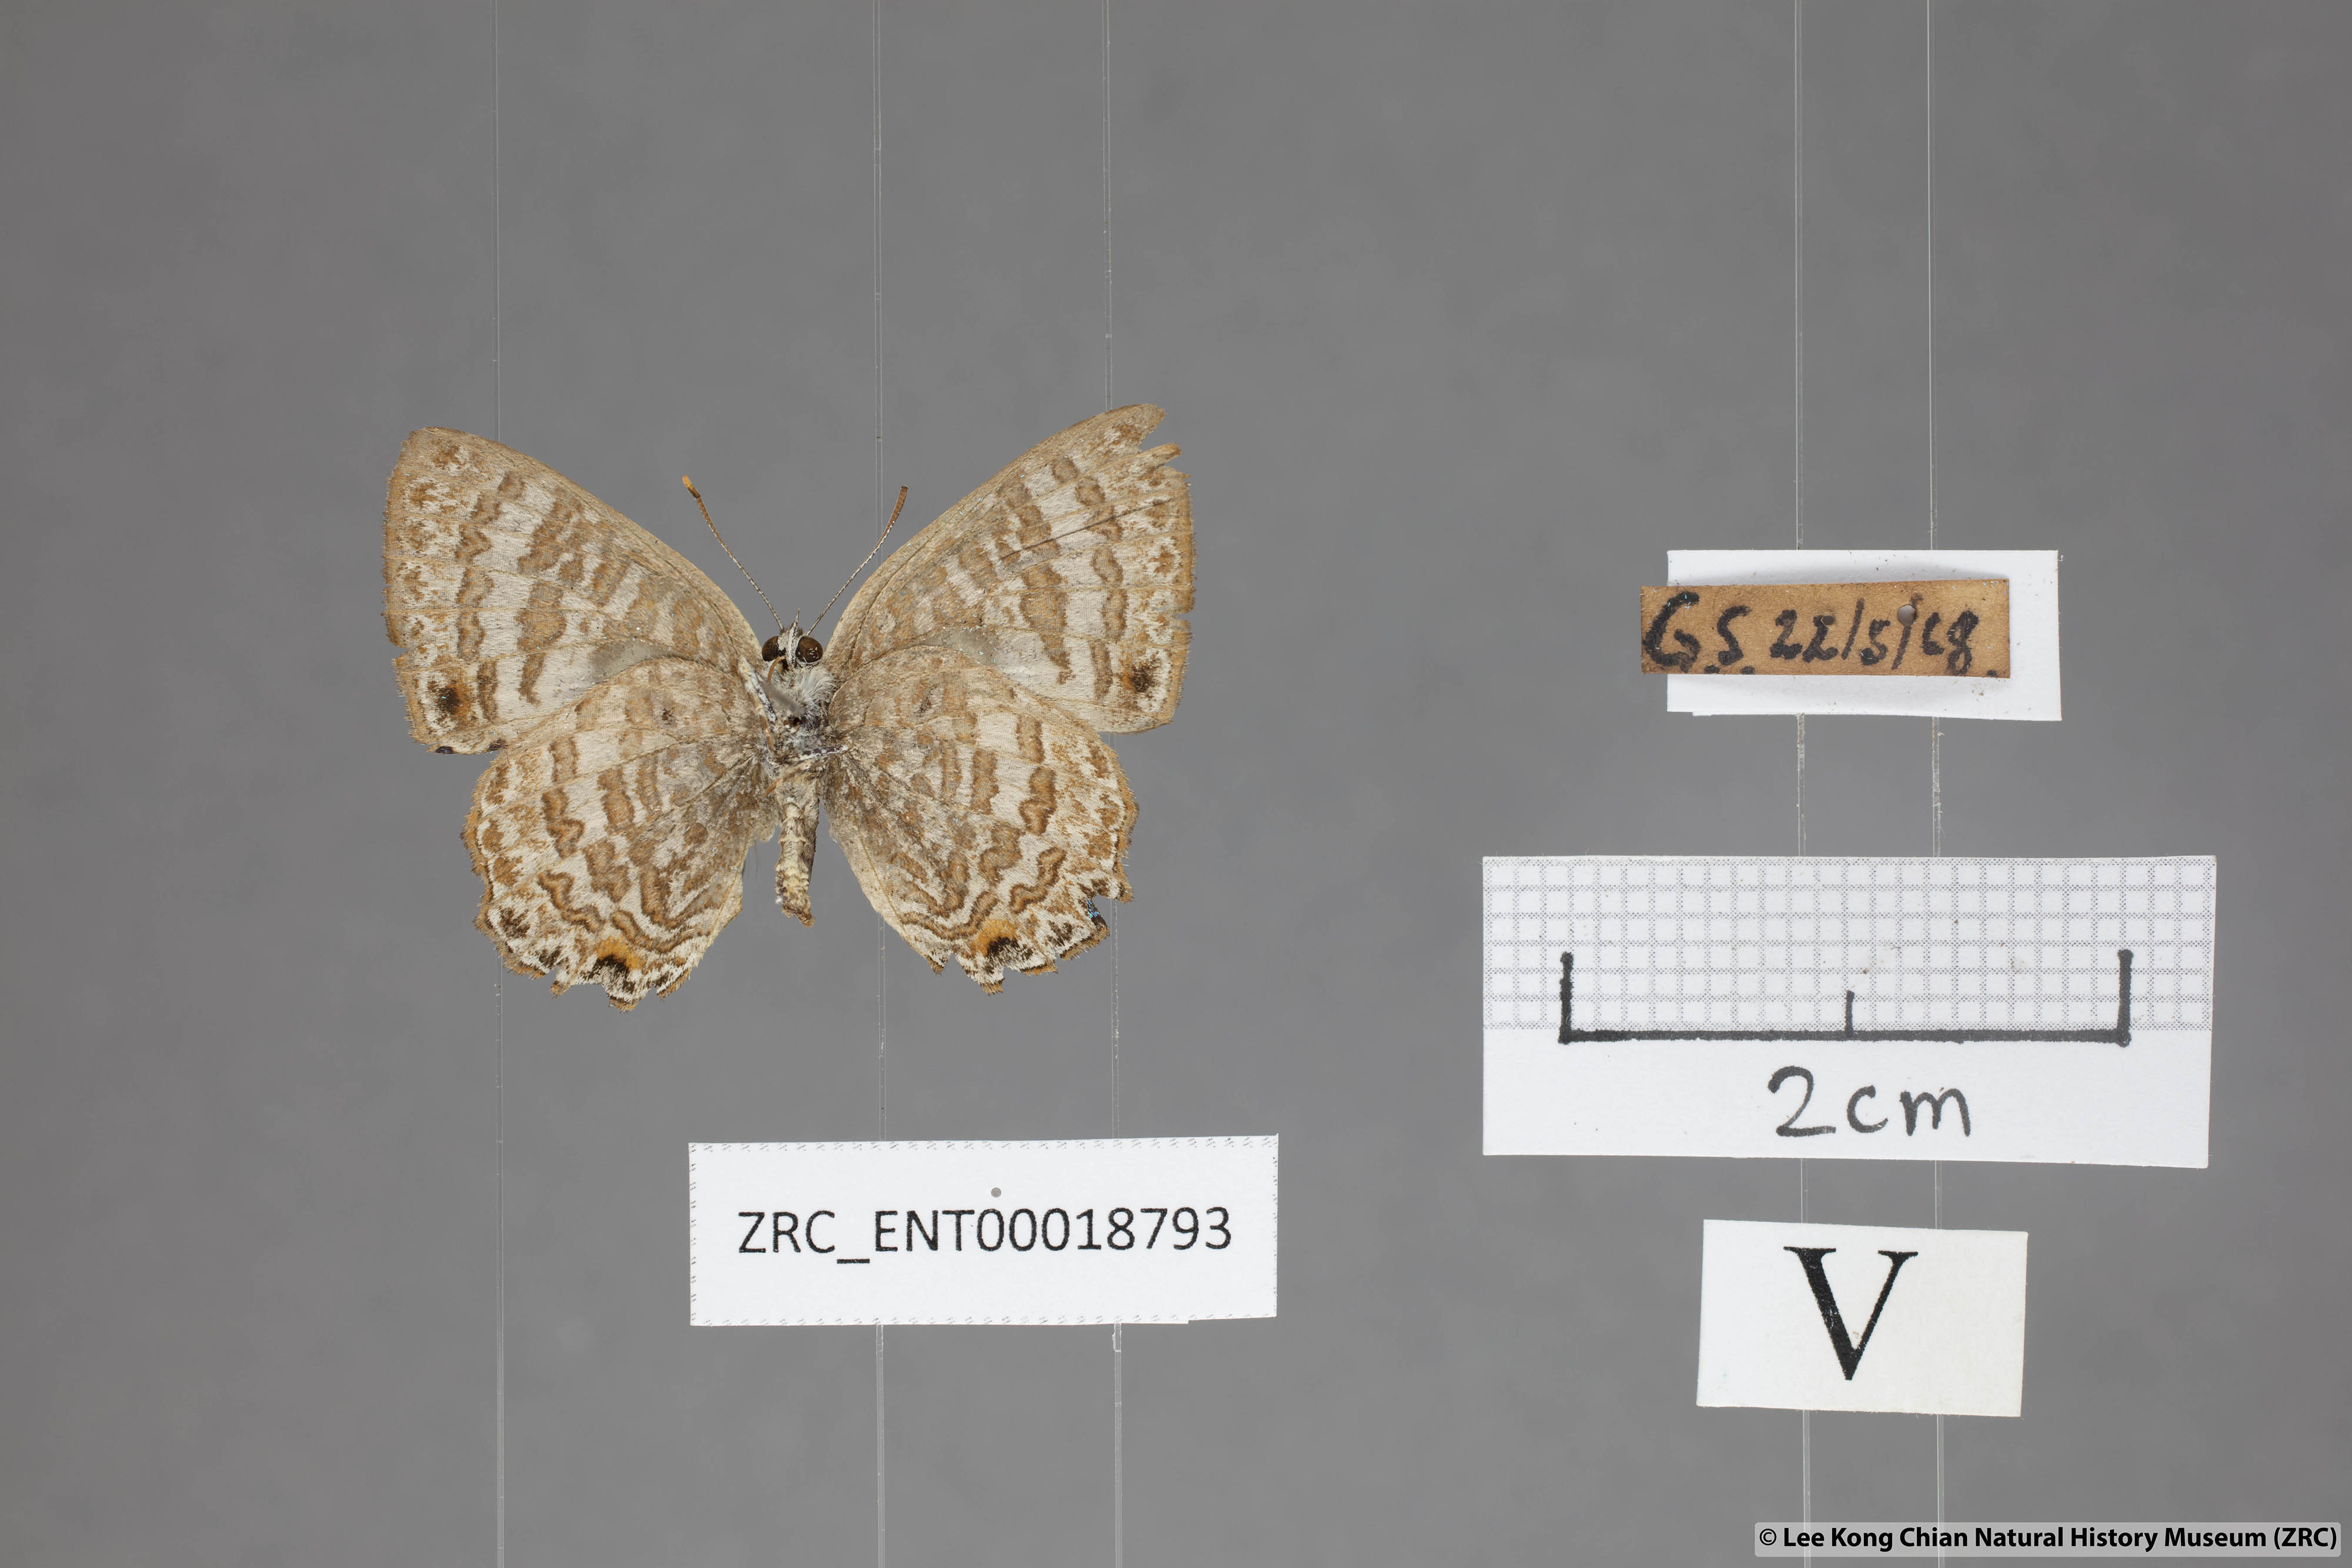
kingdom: Animalia
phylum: Arthropoda
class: Insecta
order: Lepidoptera
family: Lycaenidae
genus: Poritia
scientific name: Poritia pleurata
